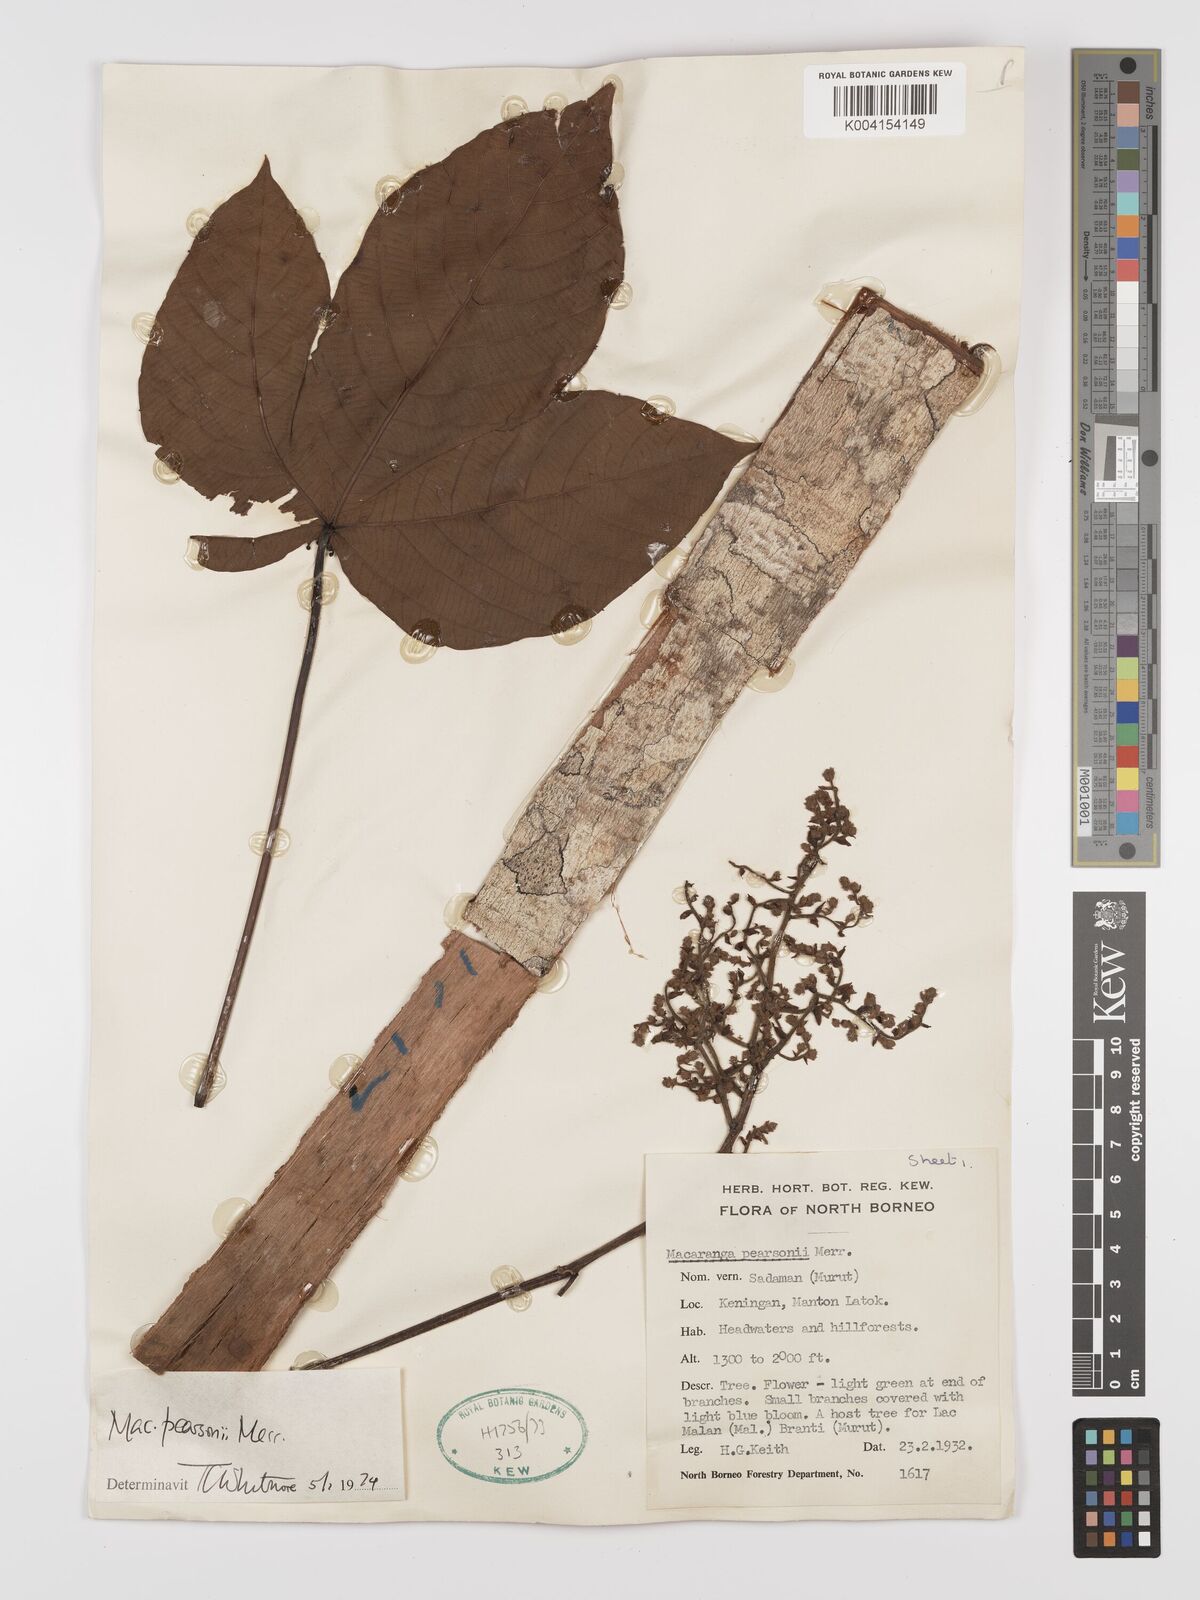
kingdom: Plantae
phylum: Tracheophyta
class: Magnoliopsida
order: Malpighiales
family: Euphorbiaceae
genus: Macaranga
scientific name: Macaranga pearsonii
